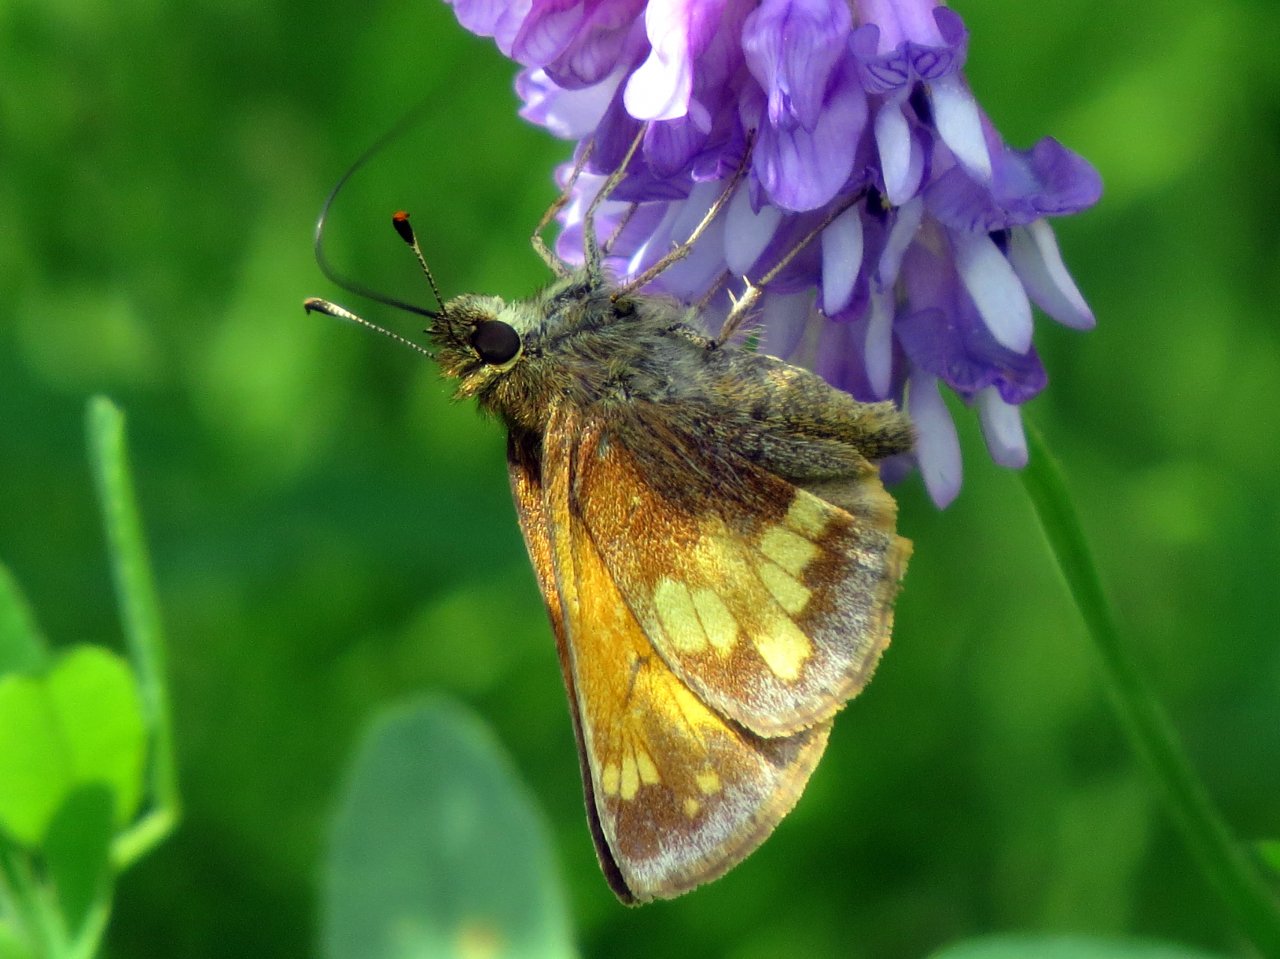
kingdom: Animalia
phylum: Arthropoda
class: Insecta
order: Lepidoptera
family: Hesperiidae
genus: Lon
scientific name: Lon hobomok
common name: Hobomok Skipper
